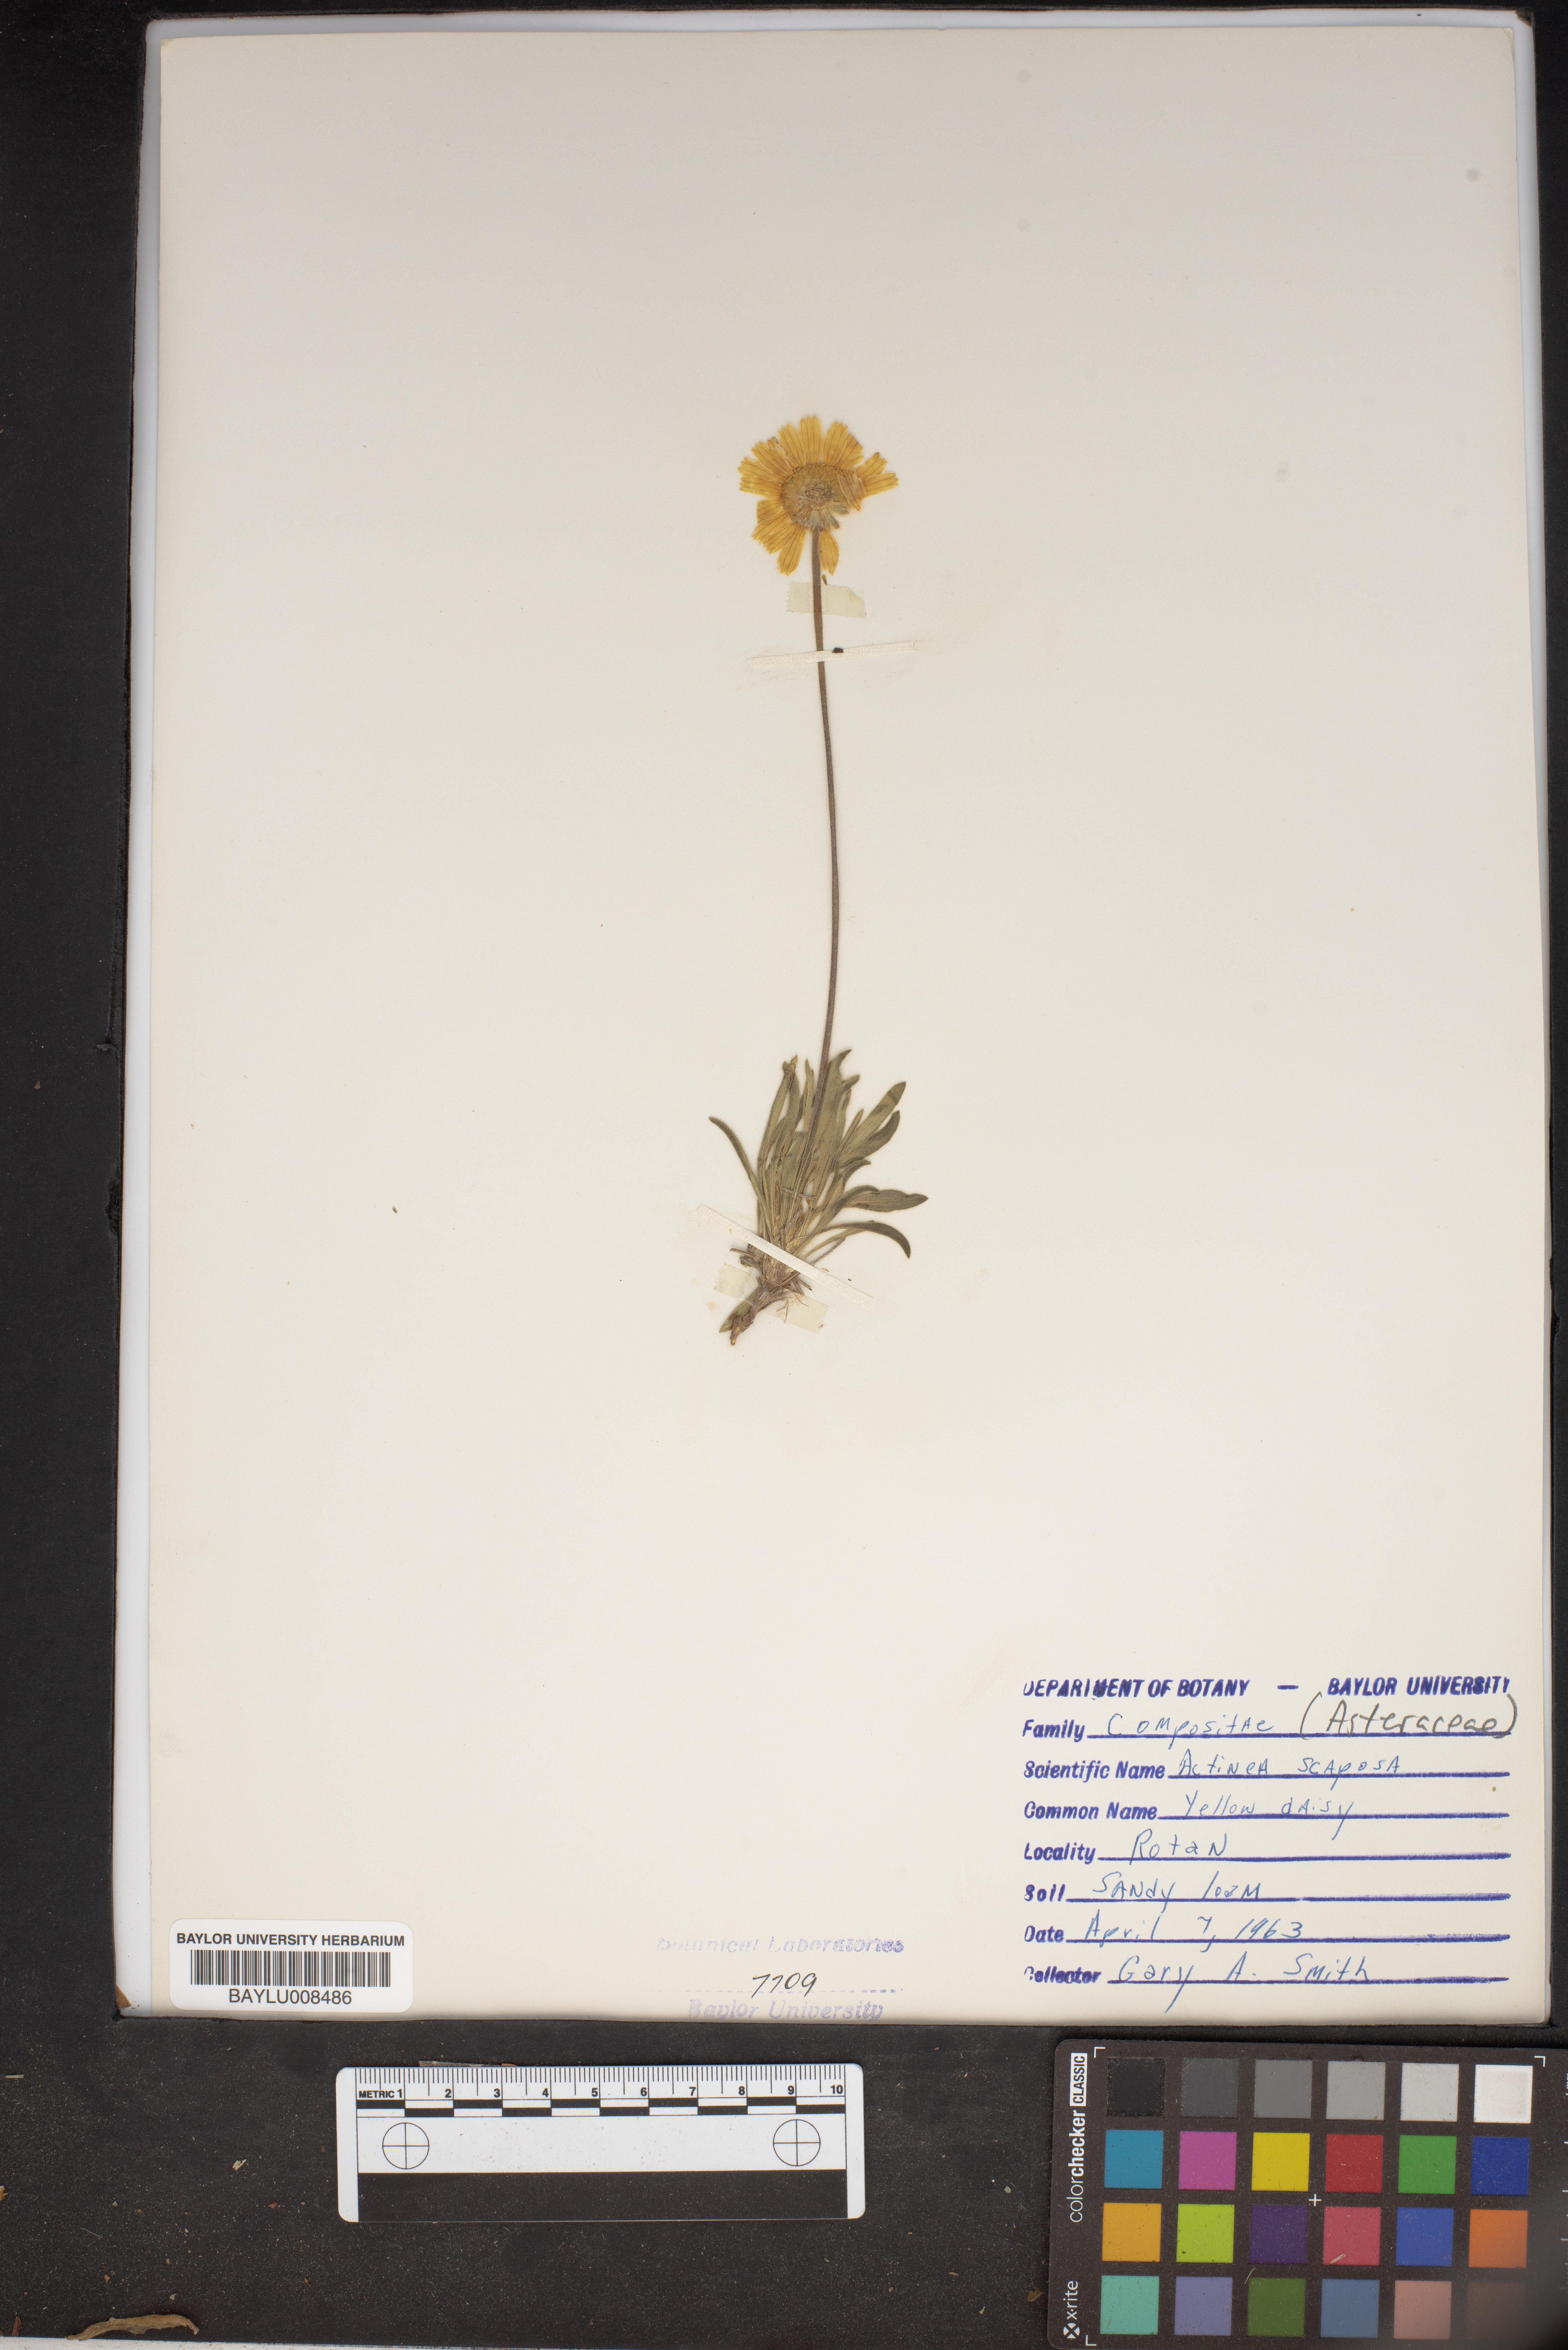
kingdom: Plantae
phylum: Tracheophyta
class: Magnoliopsida
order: Asterales
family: Asteraceae
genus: Tetraneuris
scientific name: Tetraneuris scaposa
